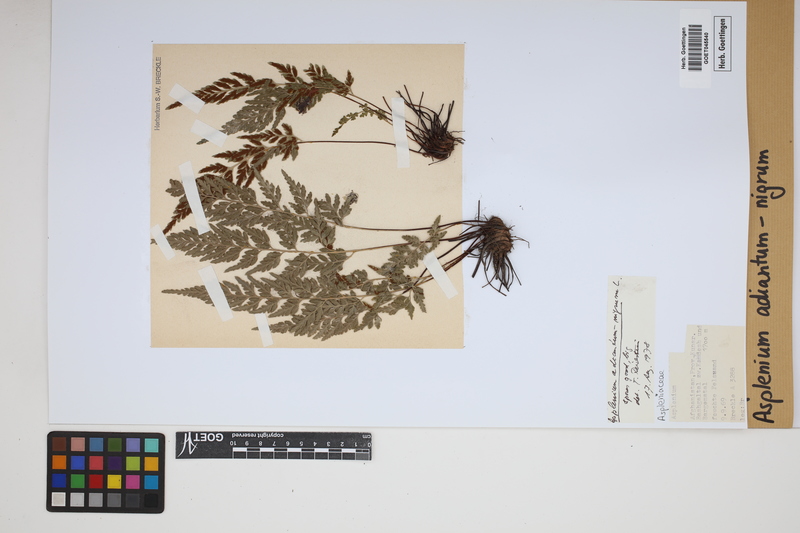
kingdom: Plantae
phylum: Tracheophyta
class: Polypodiopsida
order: Polypodiales
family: Aspleniaceae
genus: Asplenium
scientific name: Asplenium adiantum-nigrum
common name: Black spleenwort
